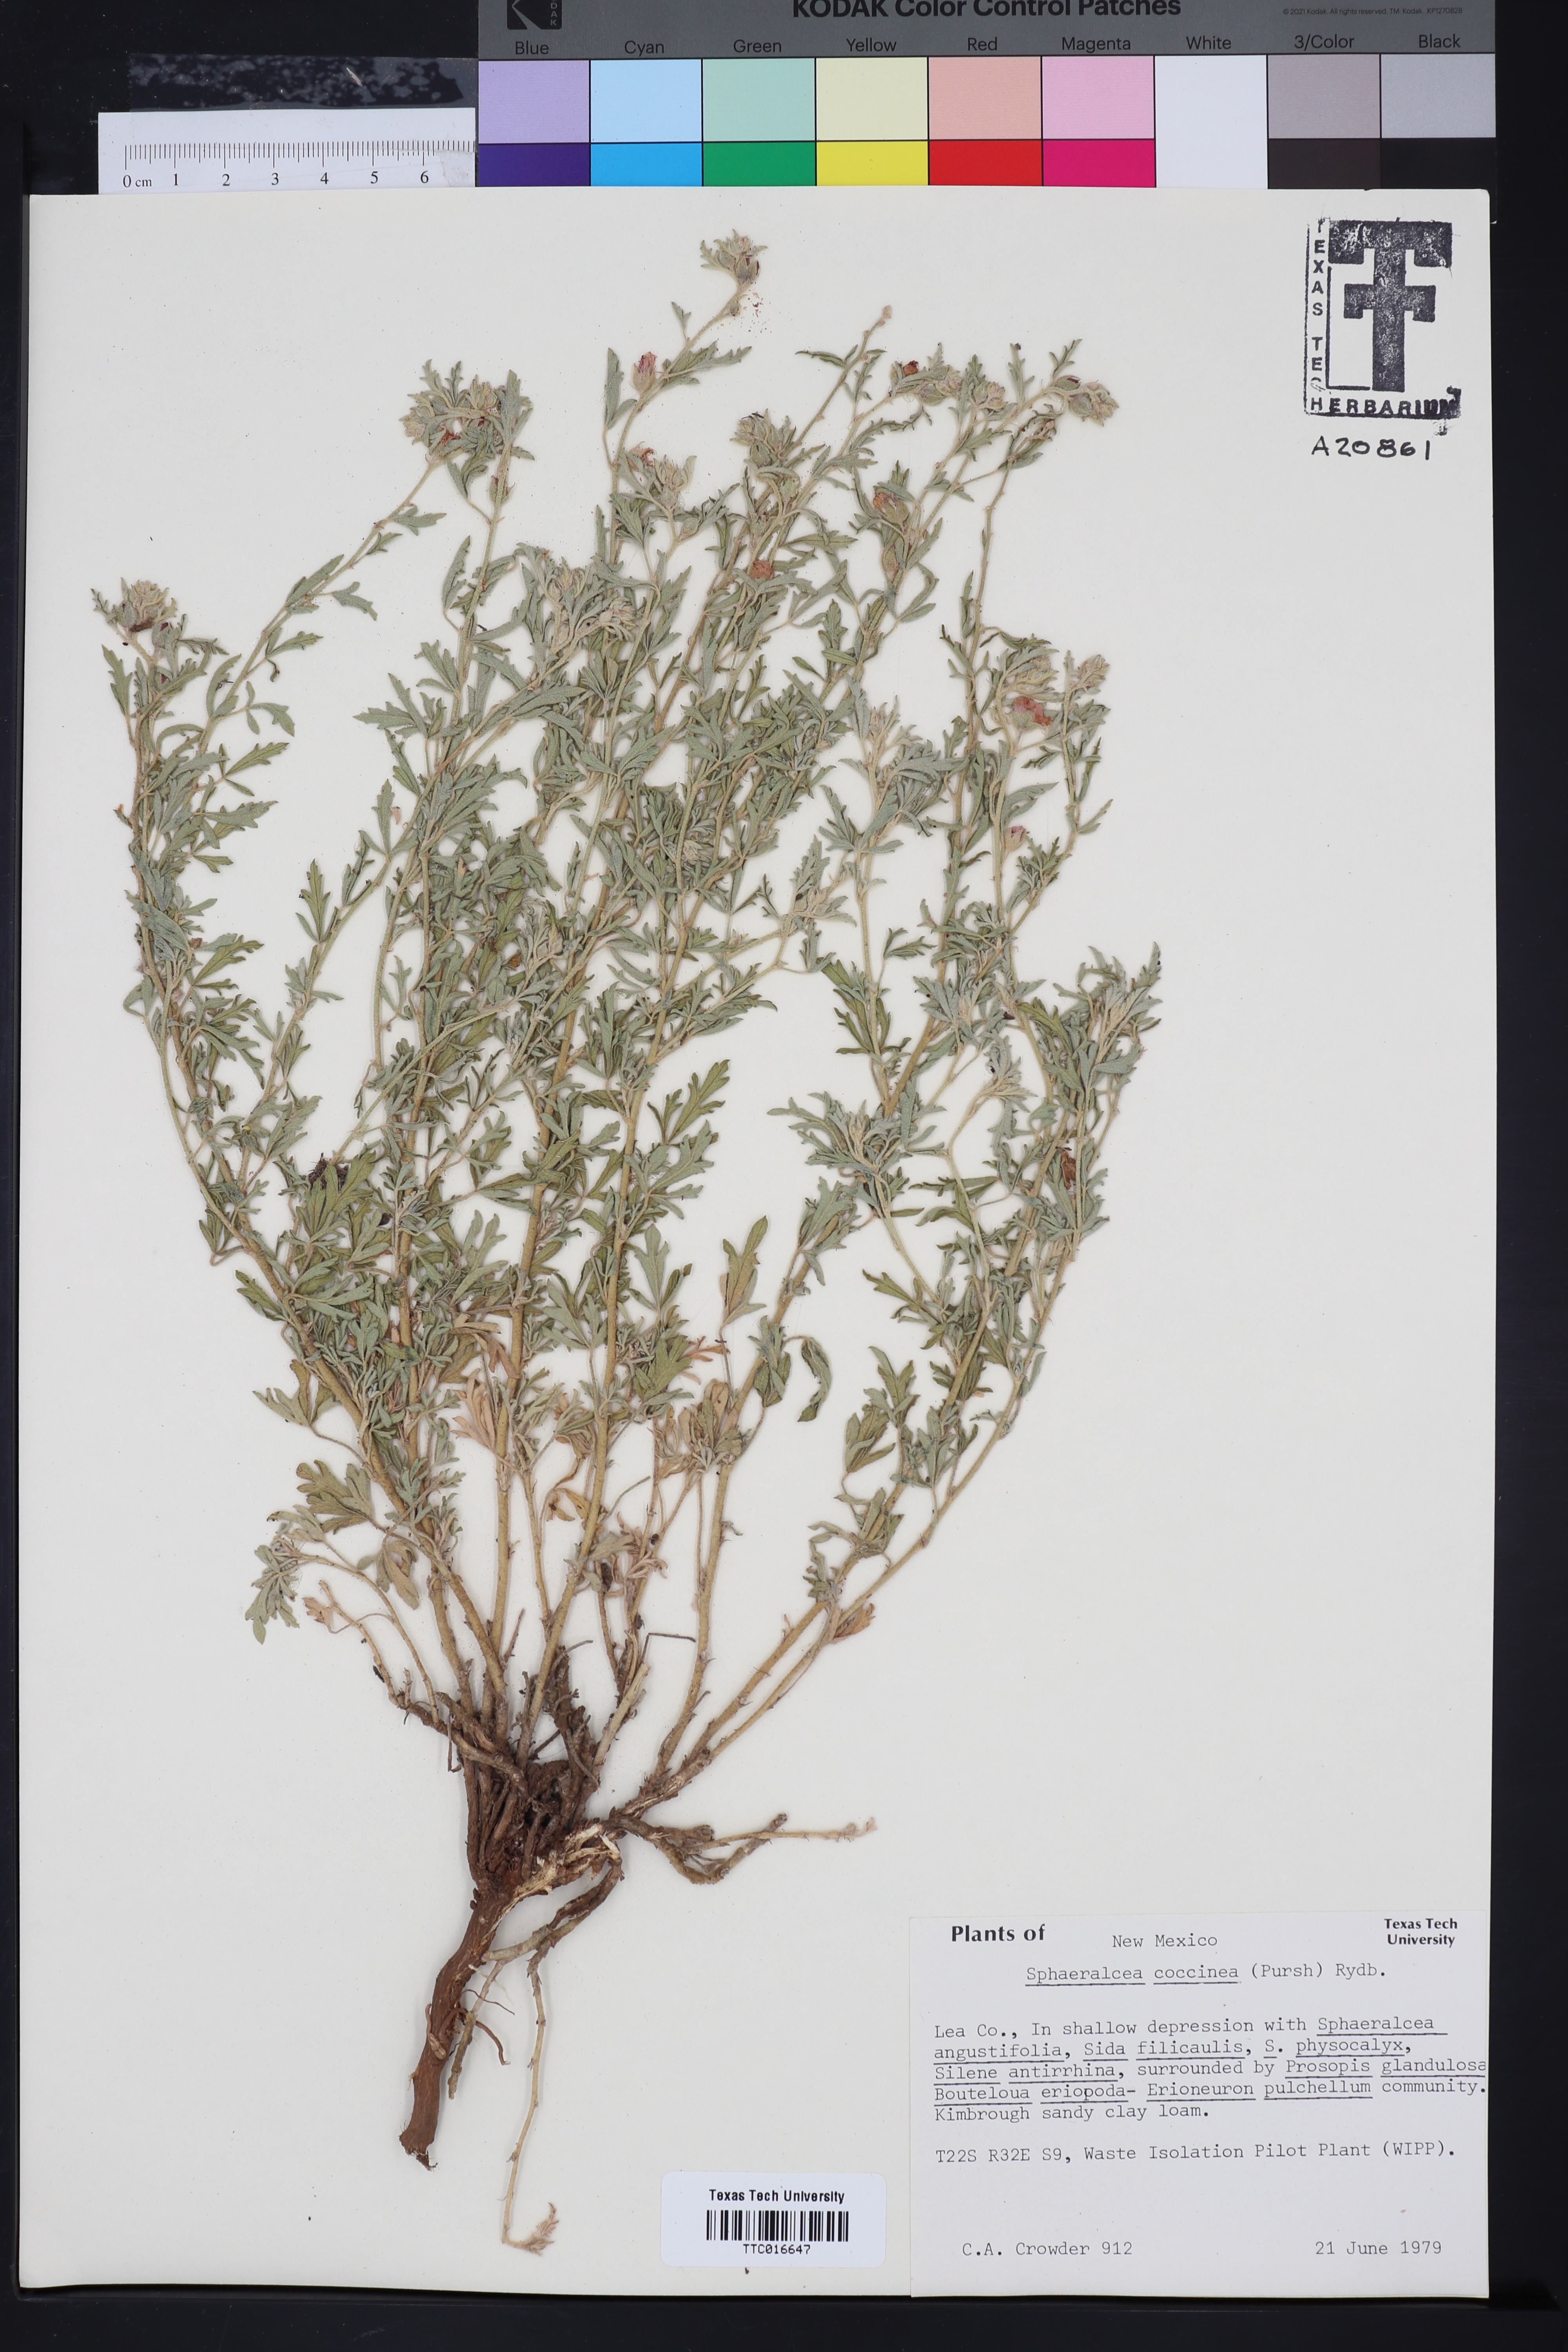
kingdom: Plantae
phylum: Tracheophyta
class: Magnoliopsida
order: Malvales
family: Malvaceae
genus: Sphaeralcea
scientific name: Sphaeralcea coccinea
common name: Moss-rose
